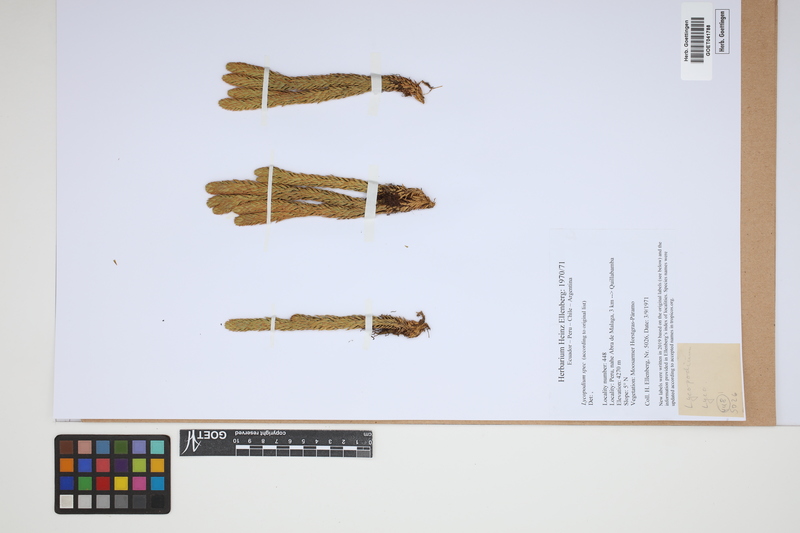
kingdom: Plantae
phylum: Tracheophyta
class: Lycopodiopsida
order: Lycopodiales
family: Lycopodiaceae
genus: Lycopodium
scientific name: Lycopodium
